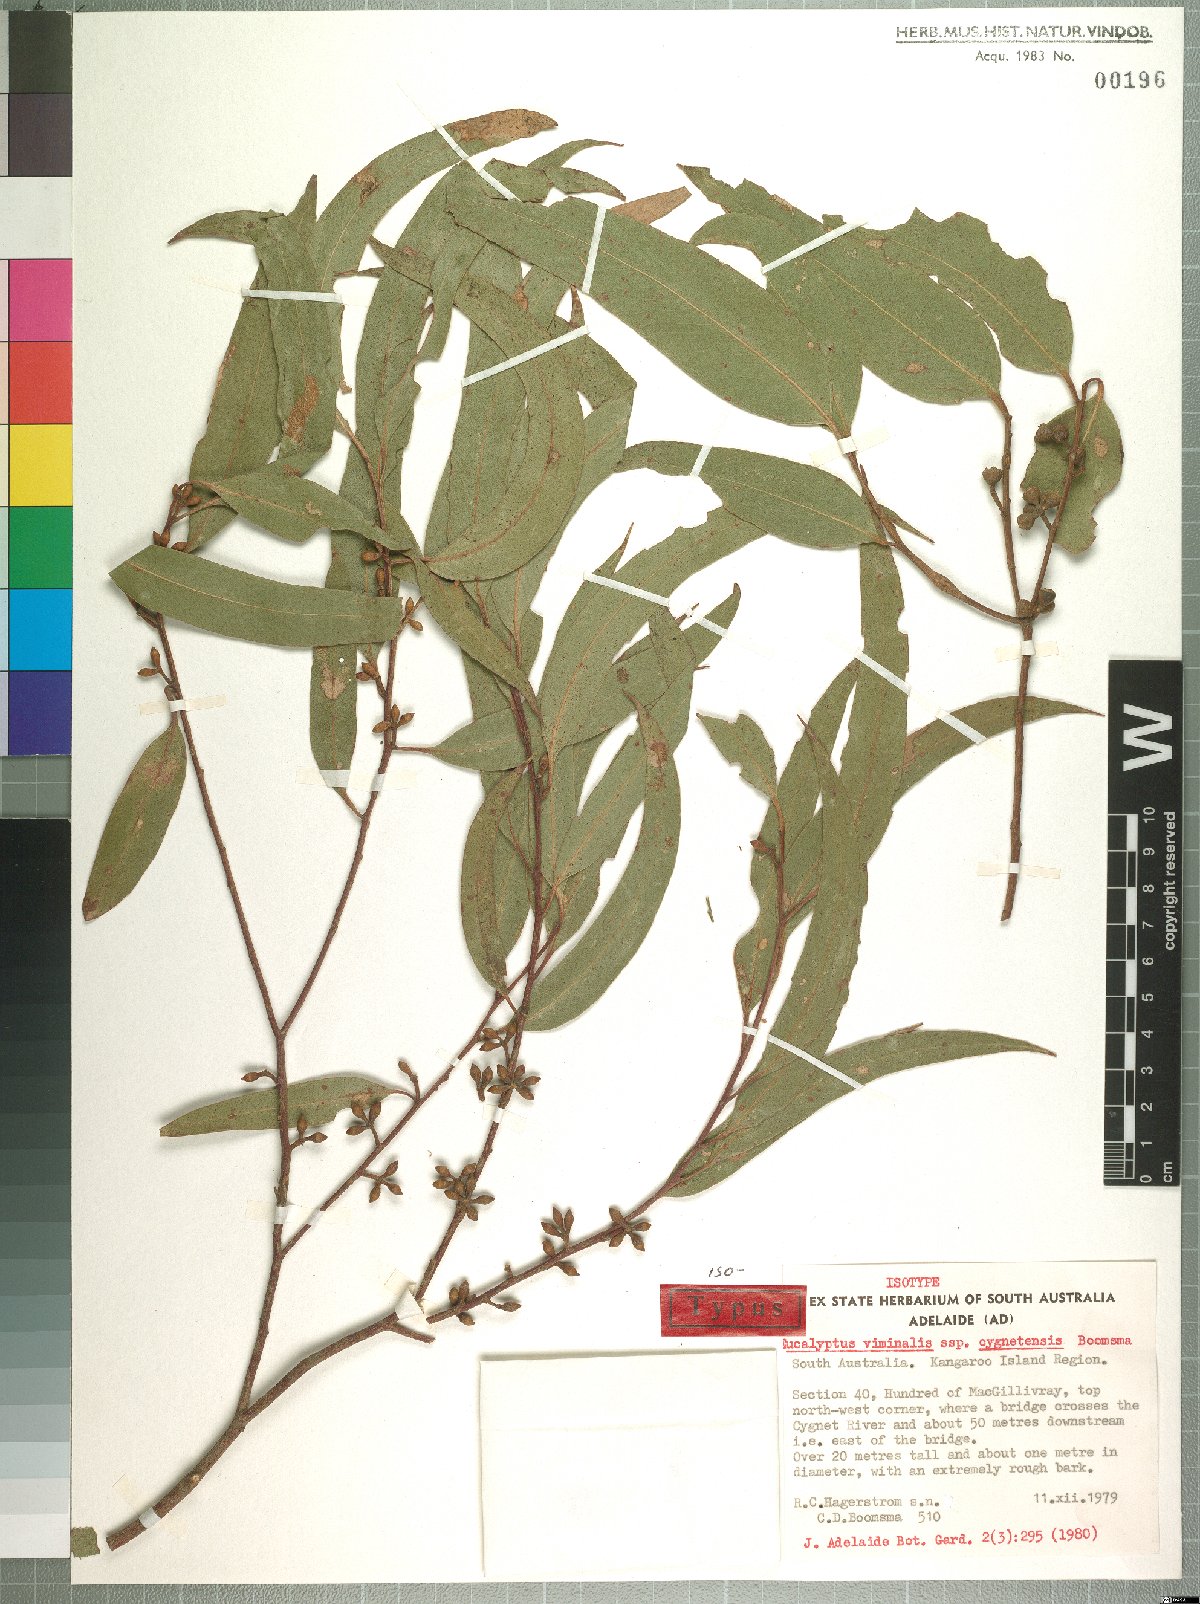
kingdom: Plantae
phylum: Tracheophyta
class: Magnoliopsida
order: Myrtales
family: Myrtaceae
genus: Eucalyptus
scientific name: Eucalyptus viminalis
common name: Manna gum
